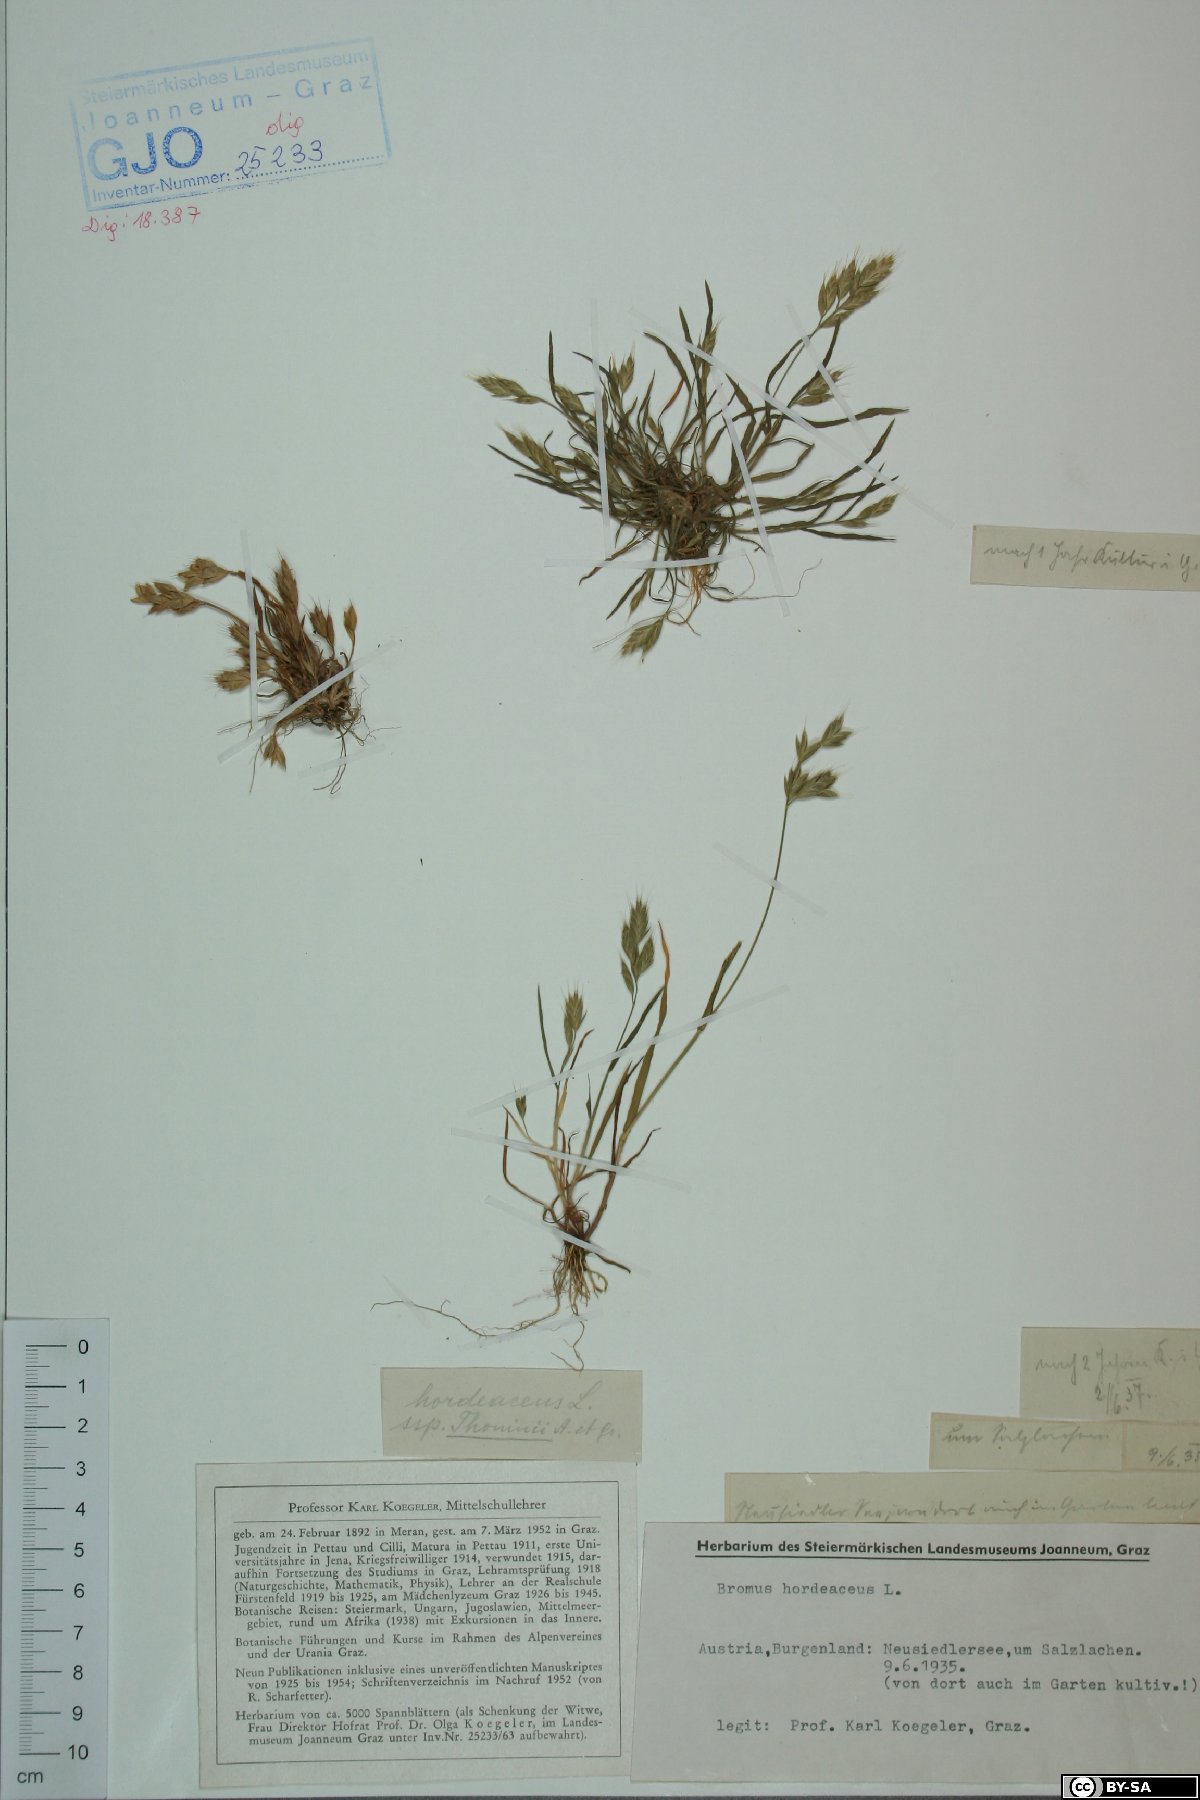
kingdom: Plantae
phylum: Tracheophyta
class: Liliopsida
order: Poales
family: Poaceae
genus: Bromus
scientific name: Bromus hordeaceus
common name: Soft brome
